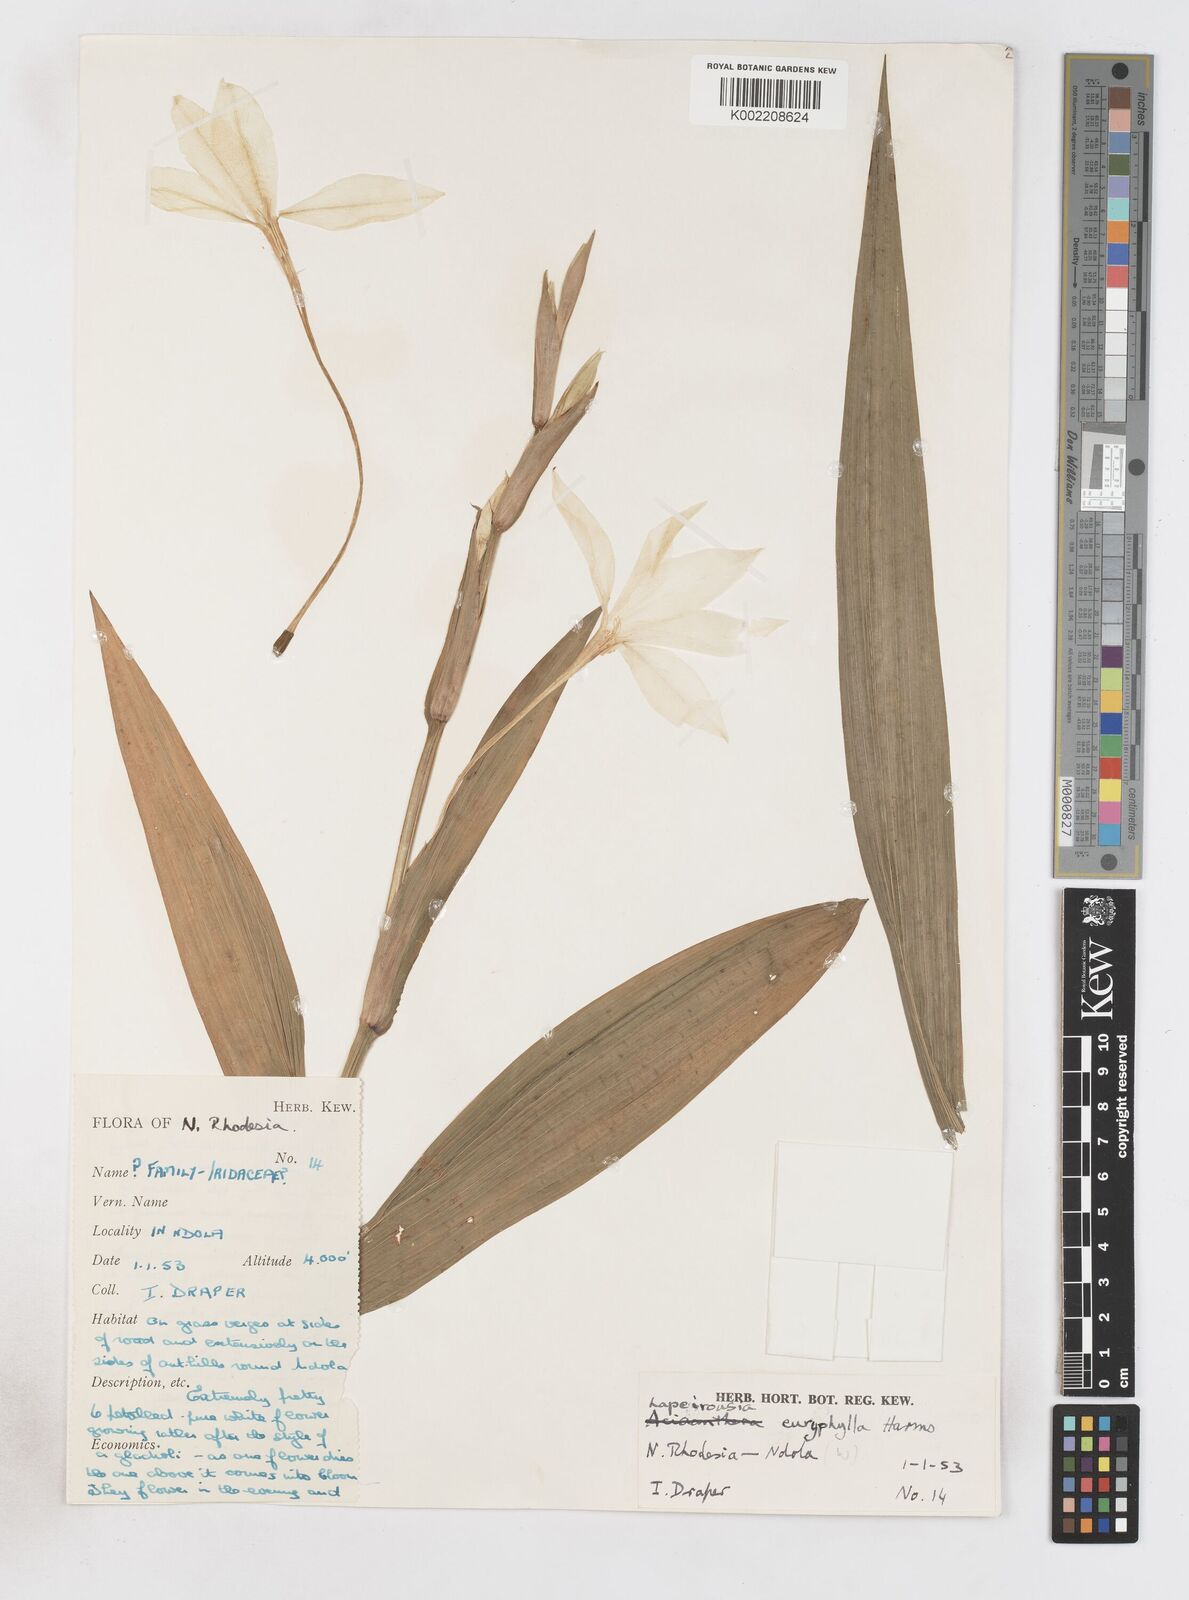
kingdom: Plantae
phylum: Tracheophyta
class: Liliopsida
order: Asparagales
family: Iridaceae
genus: Savannosiphon
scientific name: Savannosiphon euryphylla
